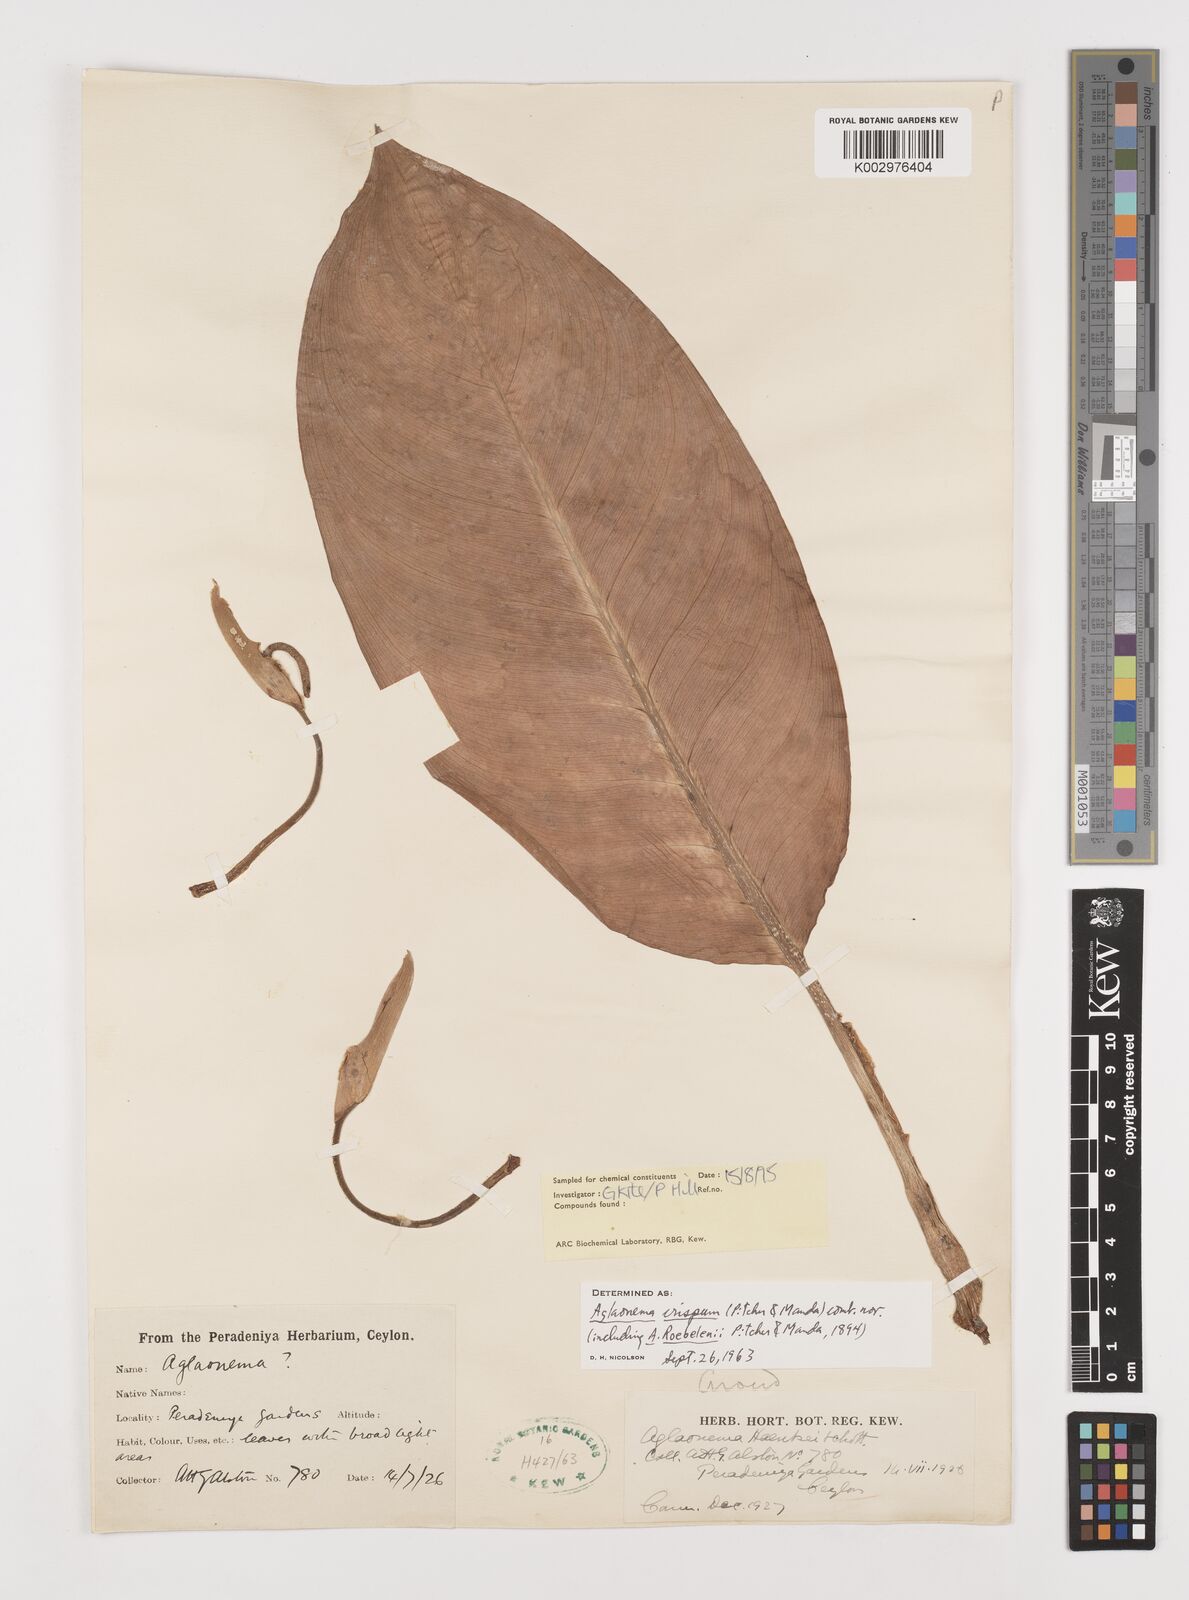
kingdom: Plantae
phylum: Tracheophyta
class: Liliopsida
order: Alismatales
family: Araceae
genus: Aglaonema
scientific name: Aglaonema robeleynii
